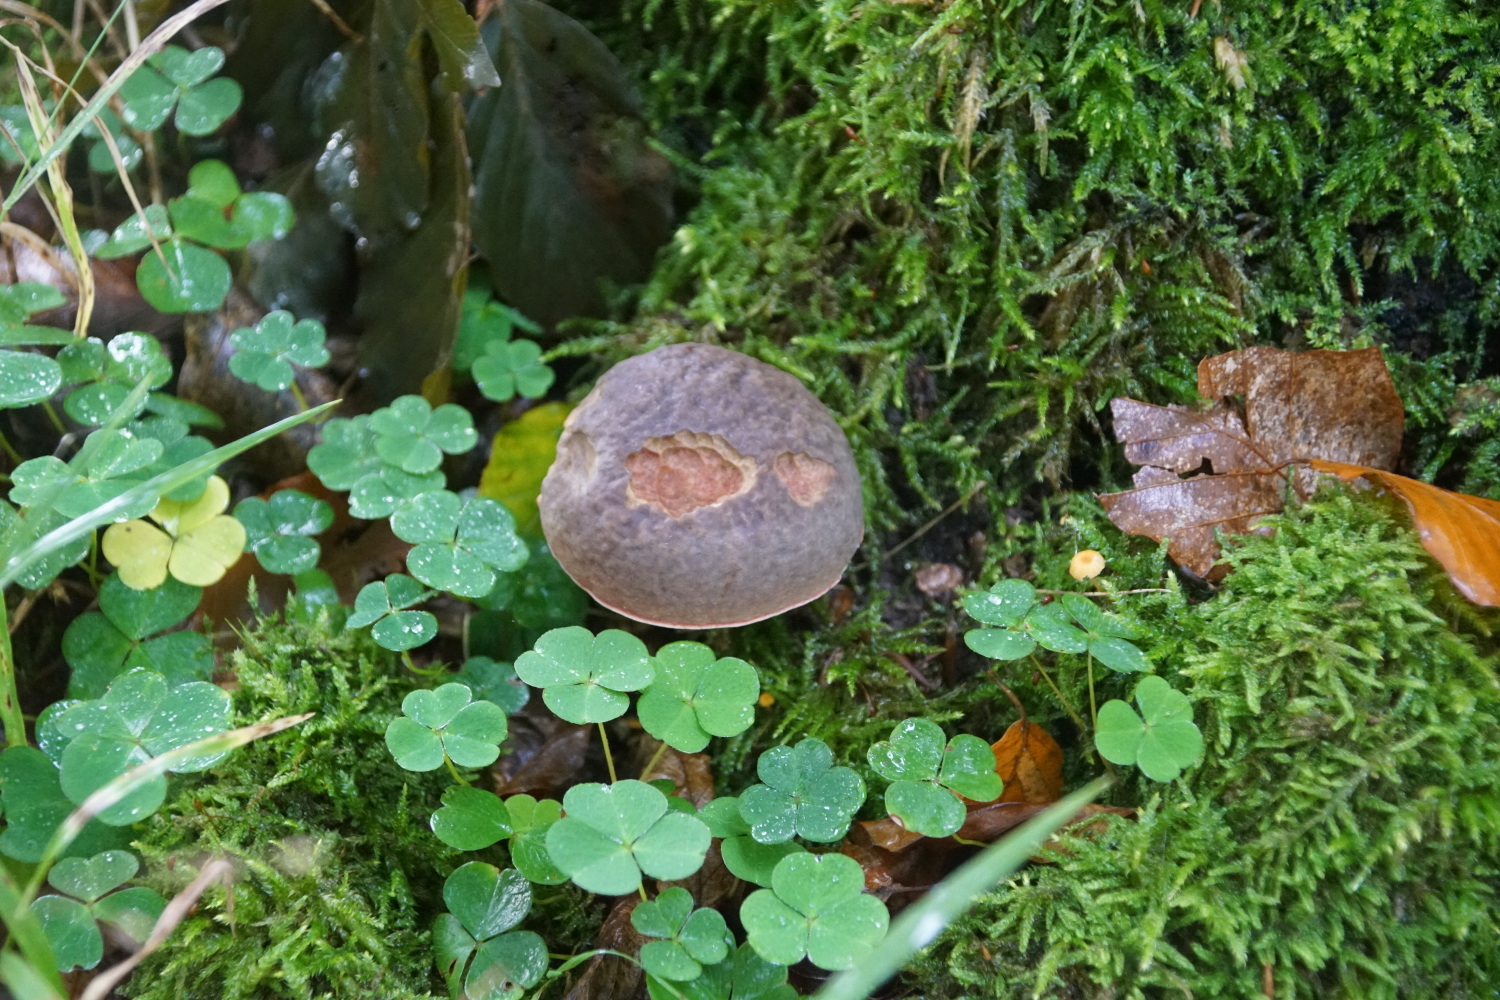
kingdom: Fungi
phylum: Basidiomycota
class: Agaricomycetes
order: Boletales
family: Boletaceae
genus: Xerocomellus
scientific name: Xerocomellus pruinatus
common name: dugget rørhat
